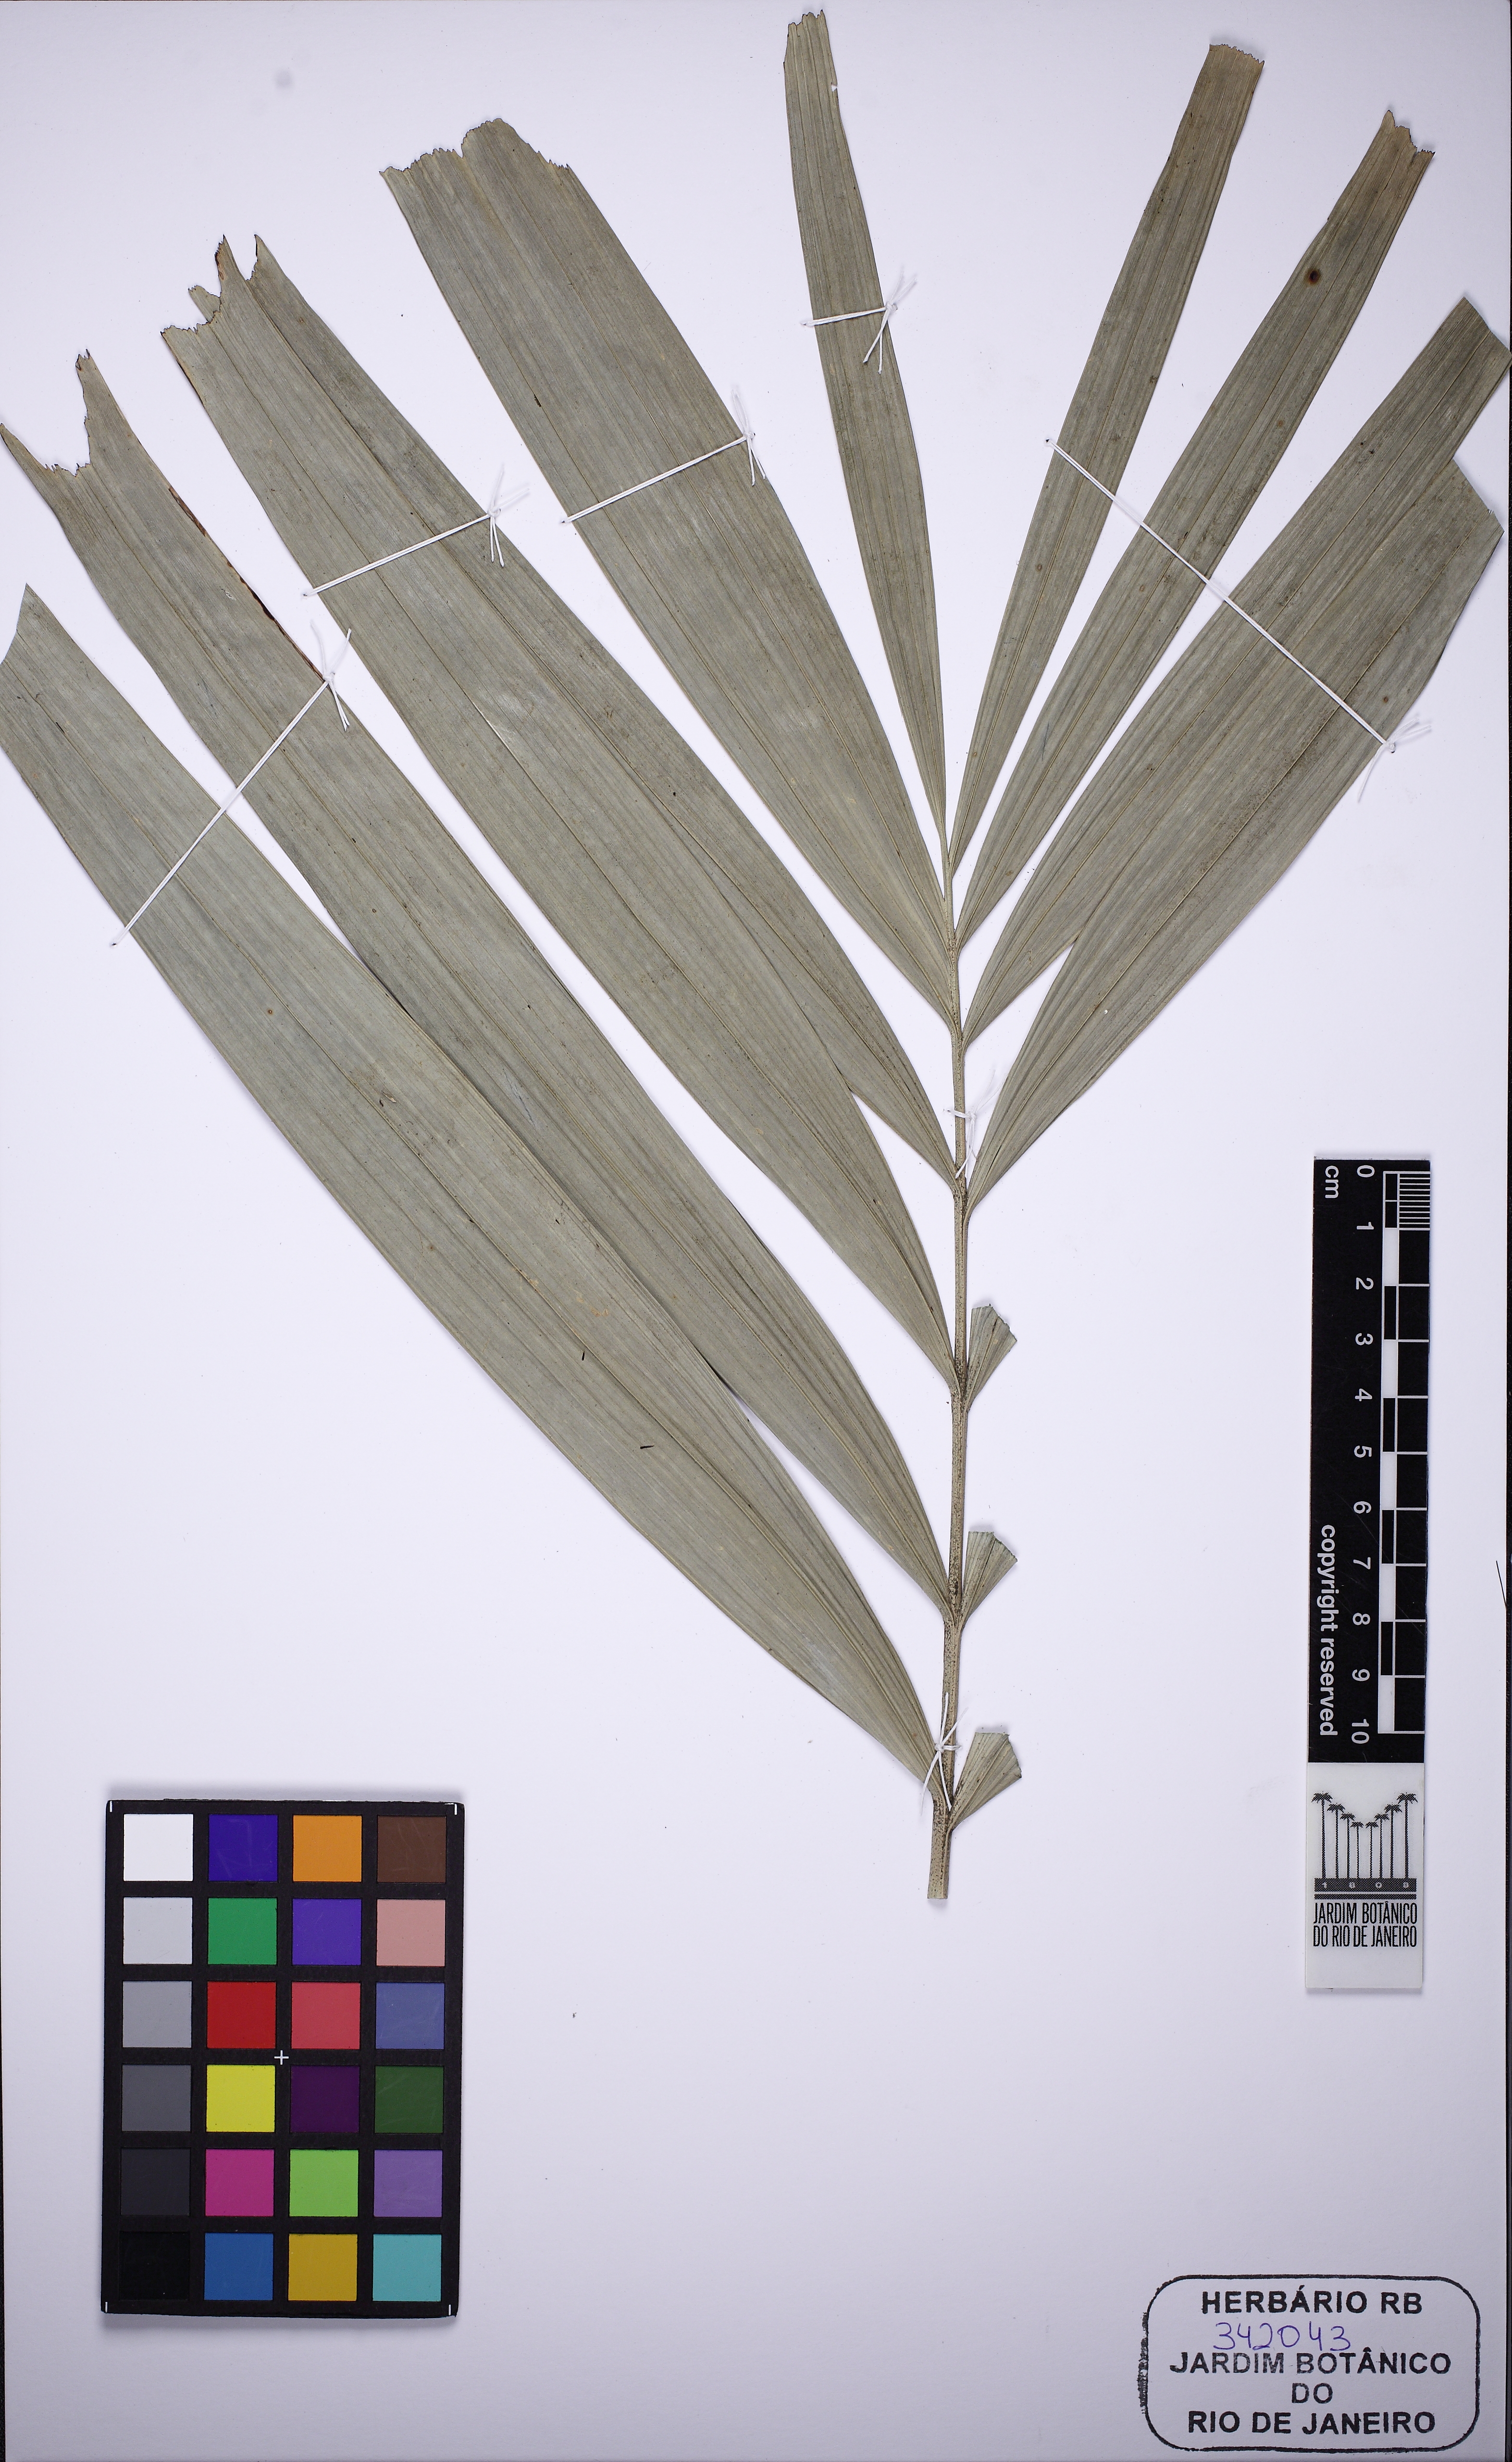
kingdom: Plantae
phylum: Tracheophyta
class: Liliopsida
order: Arecales
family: Arecaceae
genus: Ptychosperma
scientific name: Ptychosperma propinquum
